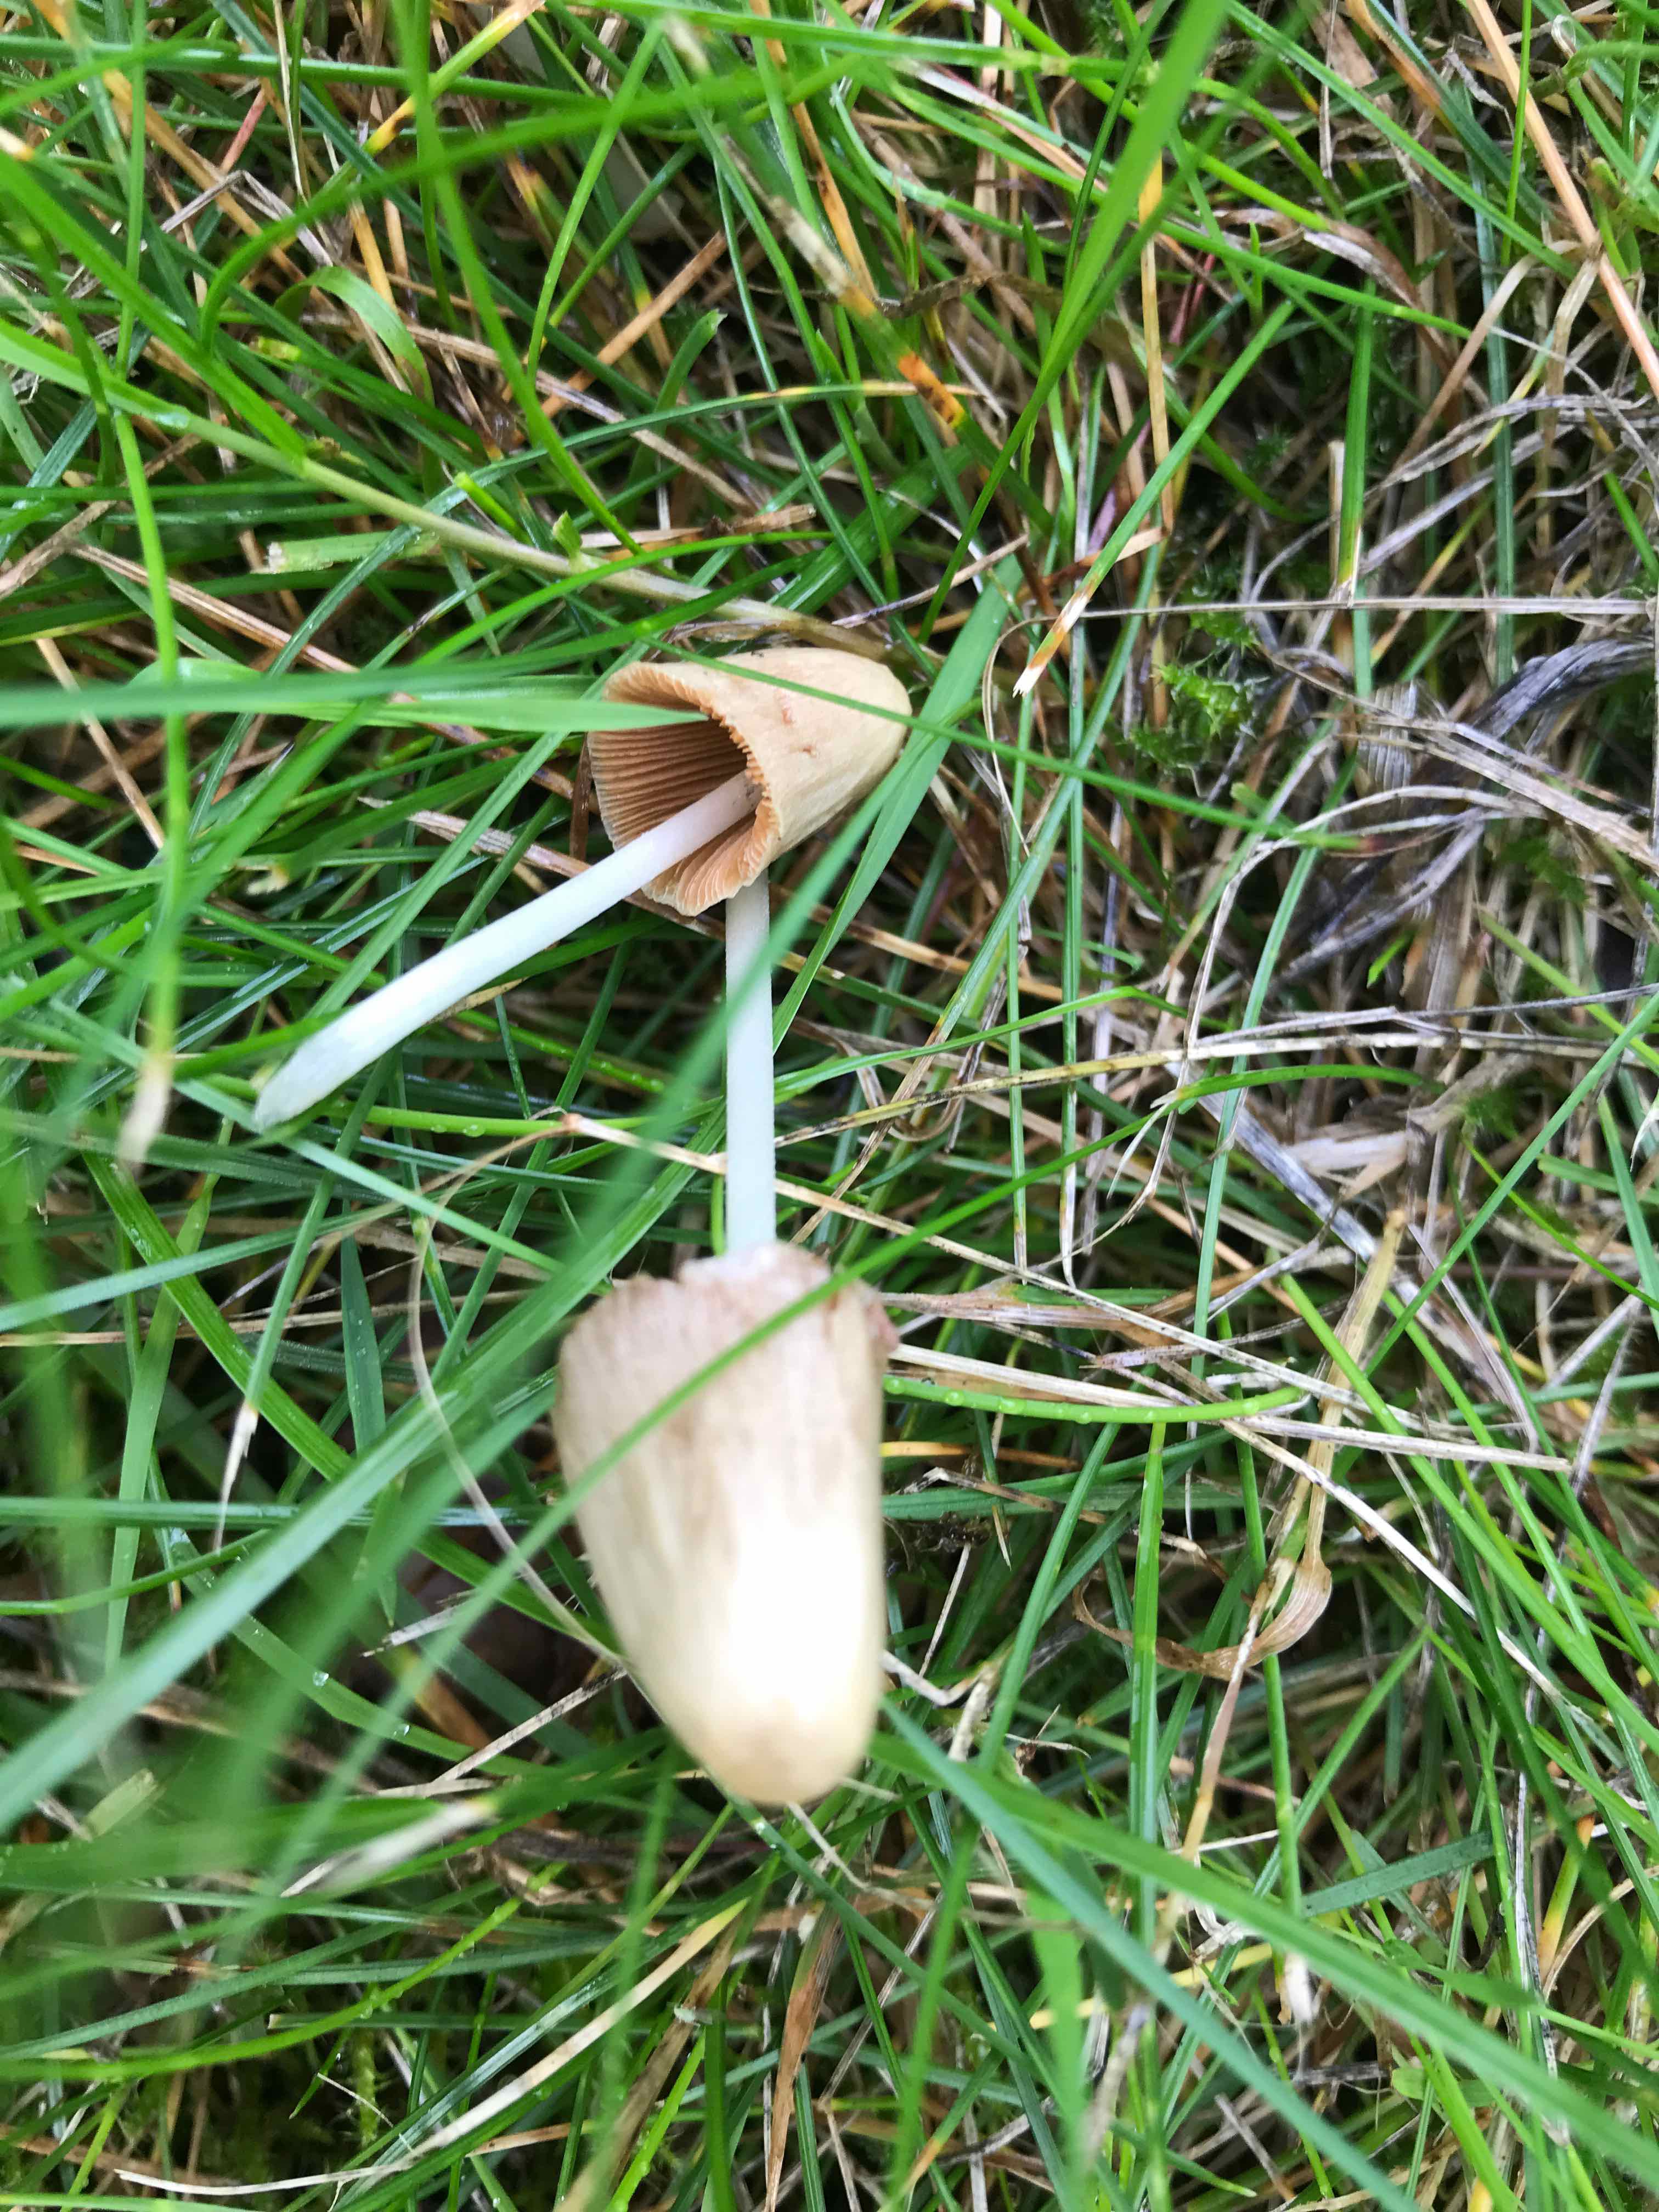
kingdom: Fungi
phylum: Basidiomycota
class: Agaricomycetes
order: Agaricales
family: Bolbitiaceae
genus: Conocybe
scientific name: Conocybe apala
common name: mælkehvid keglehat
